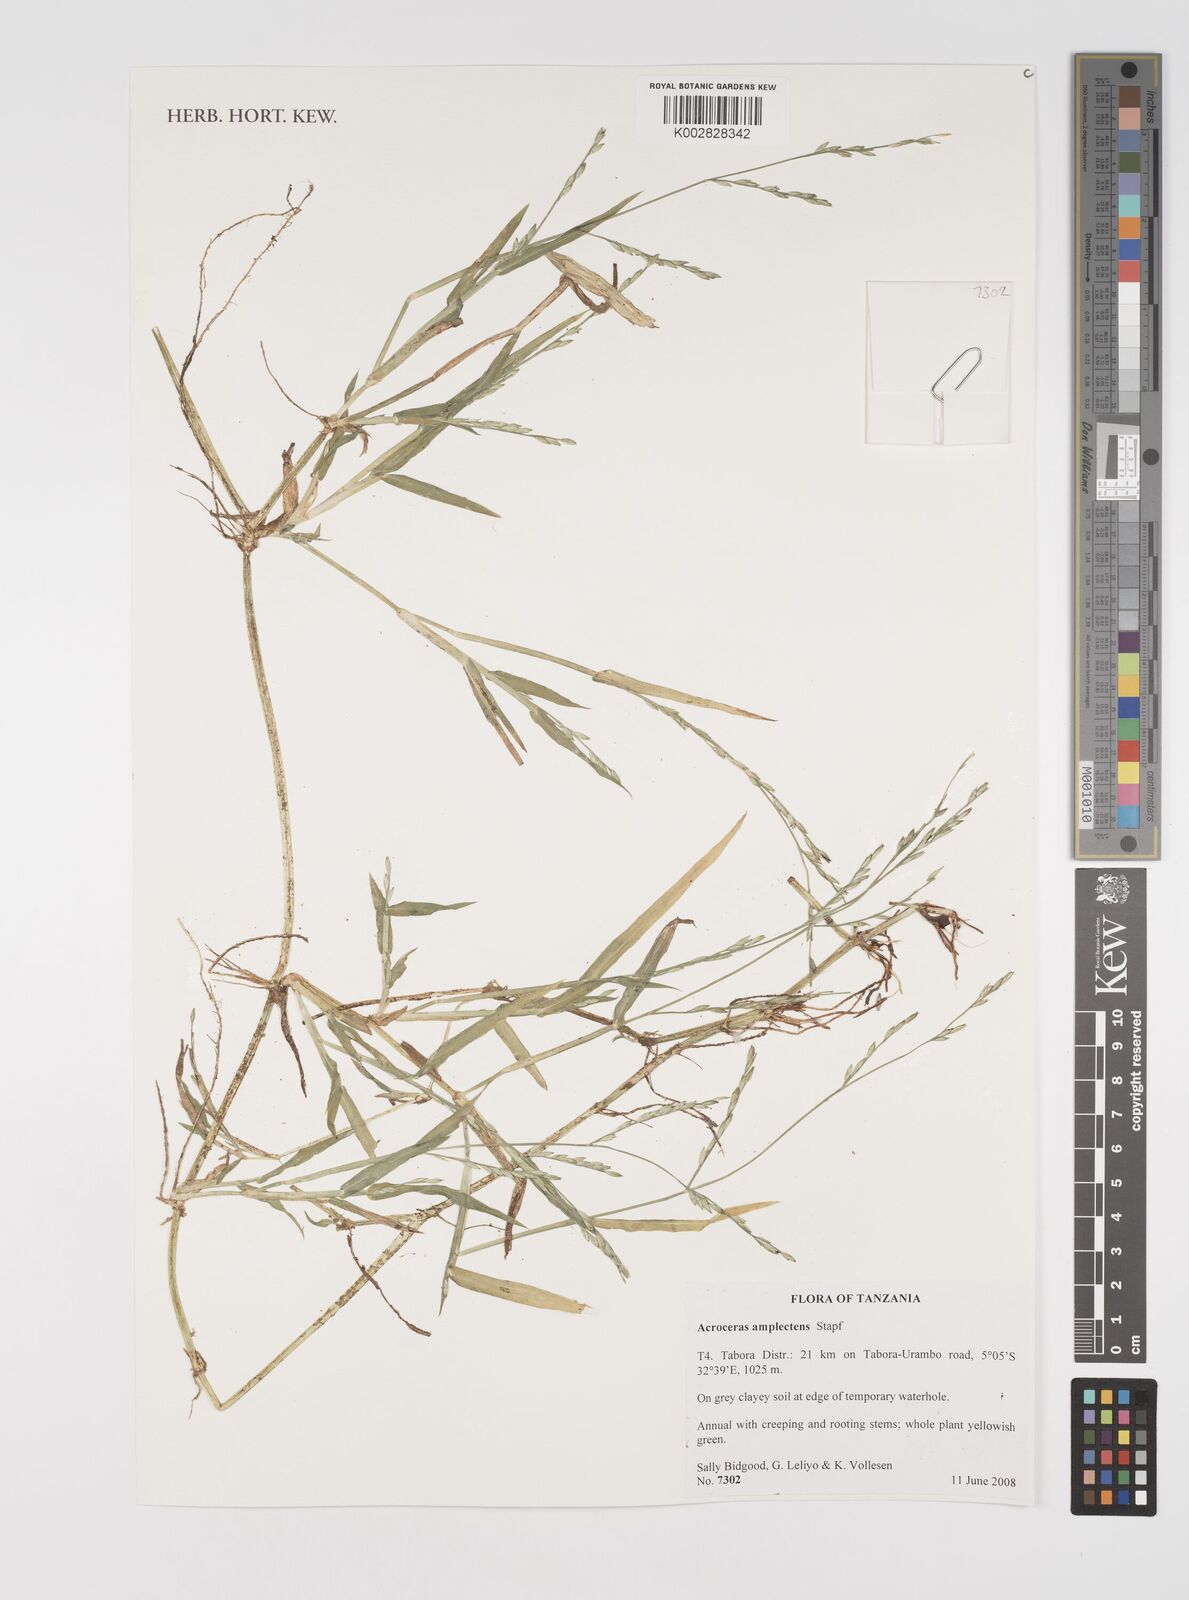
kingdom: Plantae
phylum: Tracheophyta
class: Liliopsida
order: Poales
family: Poaceae
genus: Acroceras
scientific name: Acroceras amplectens
